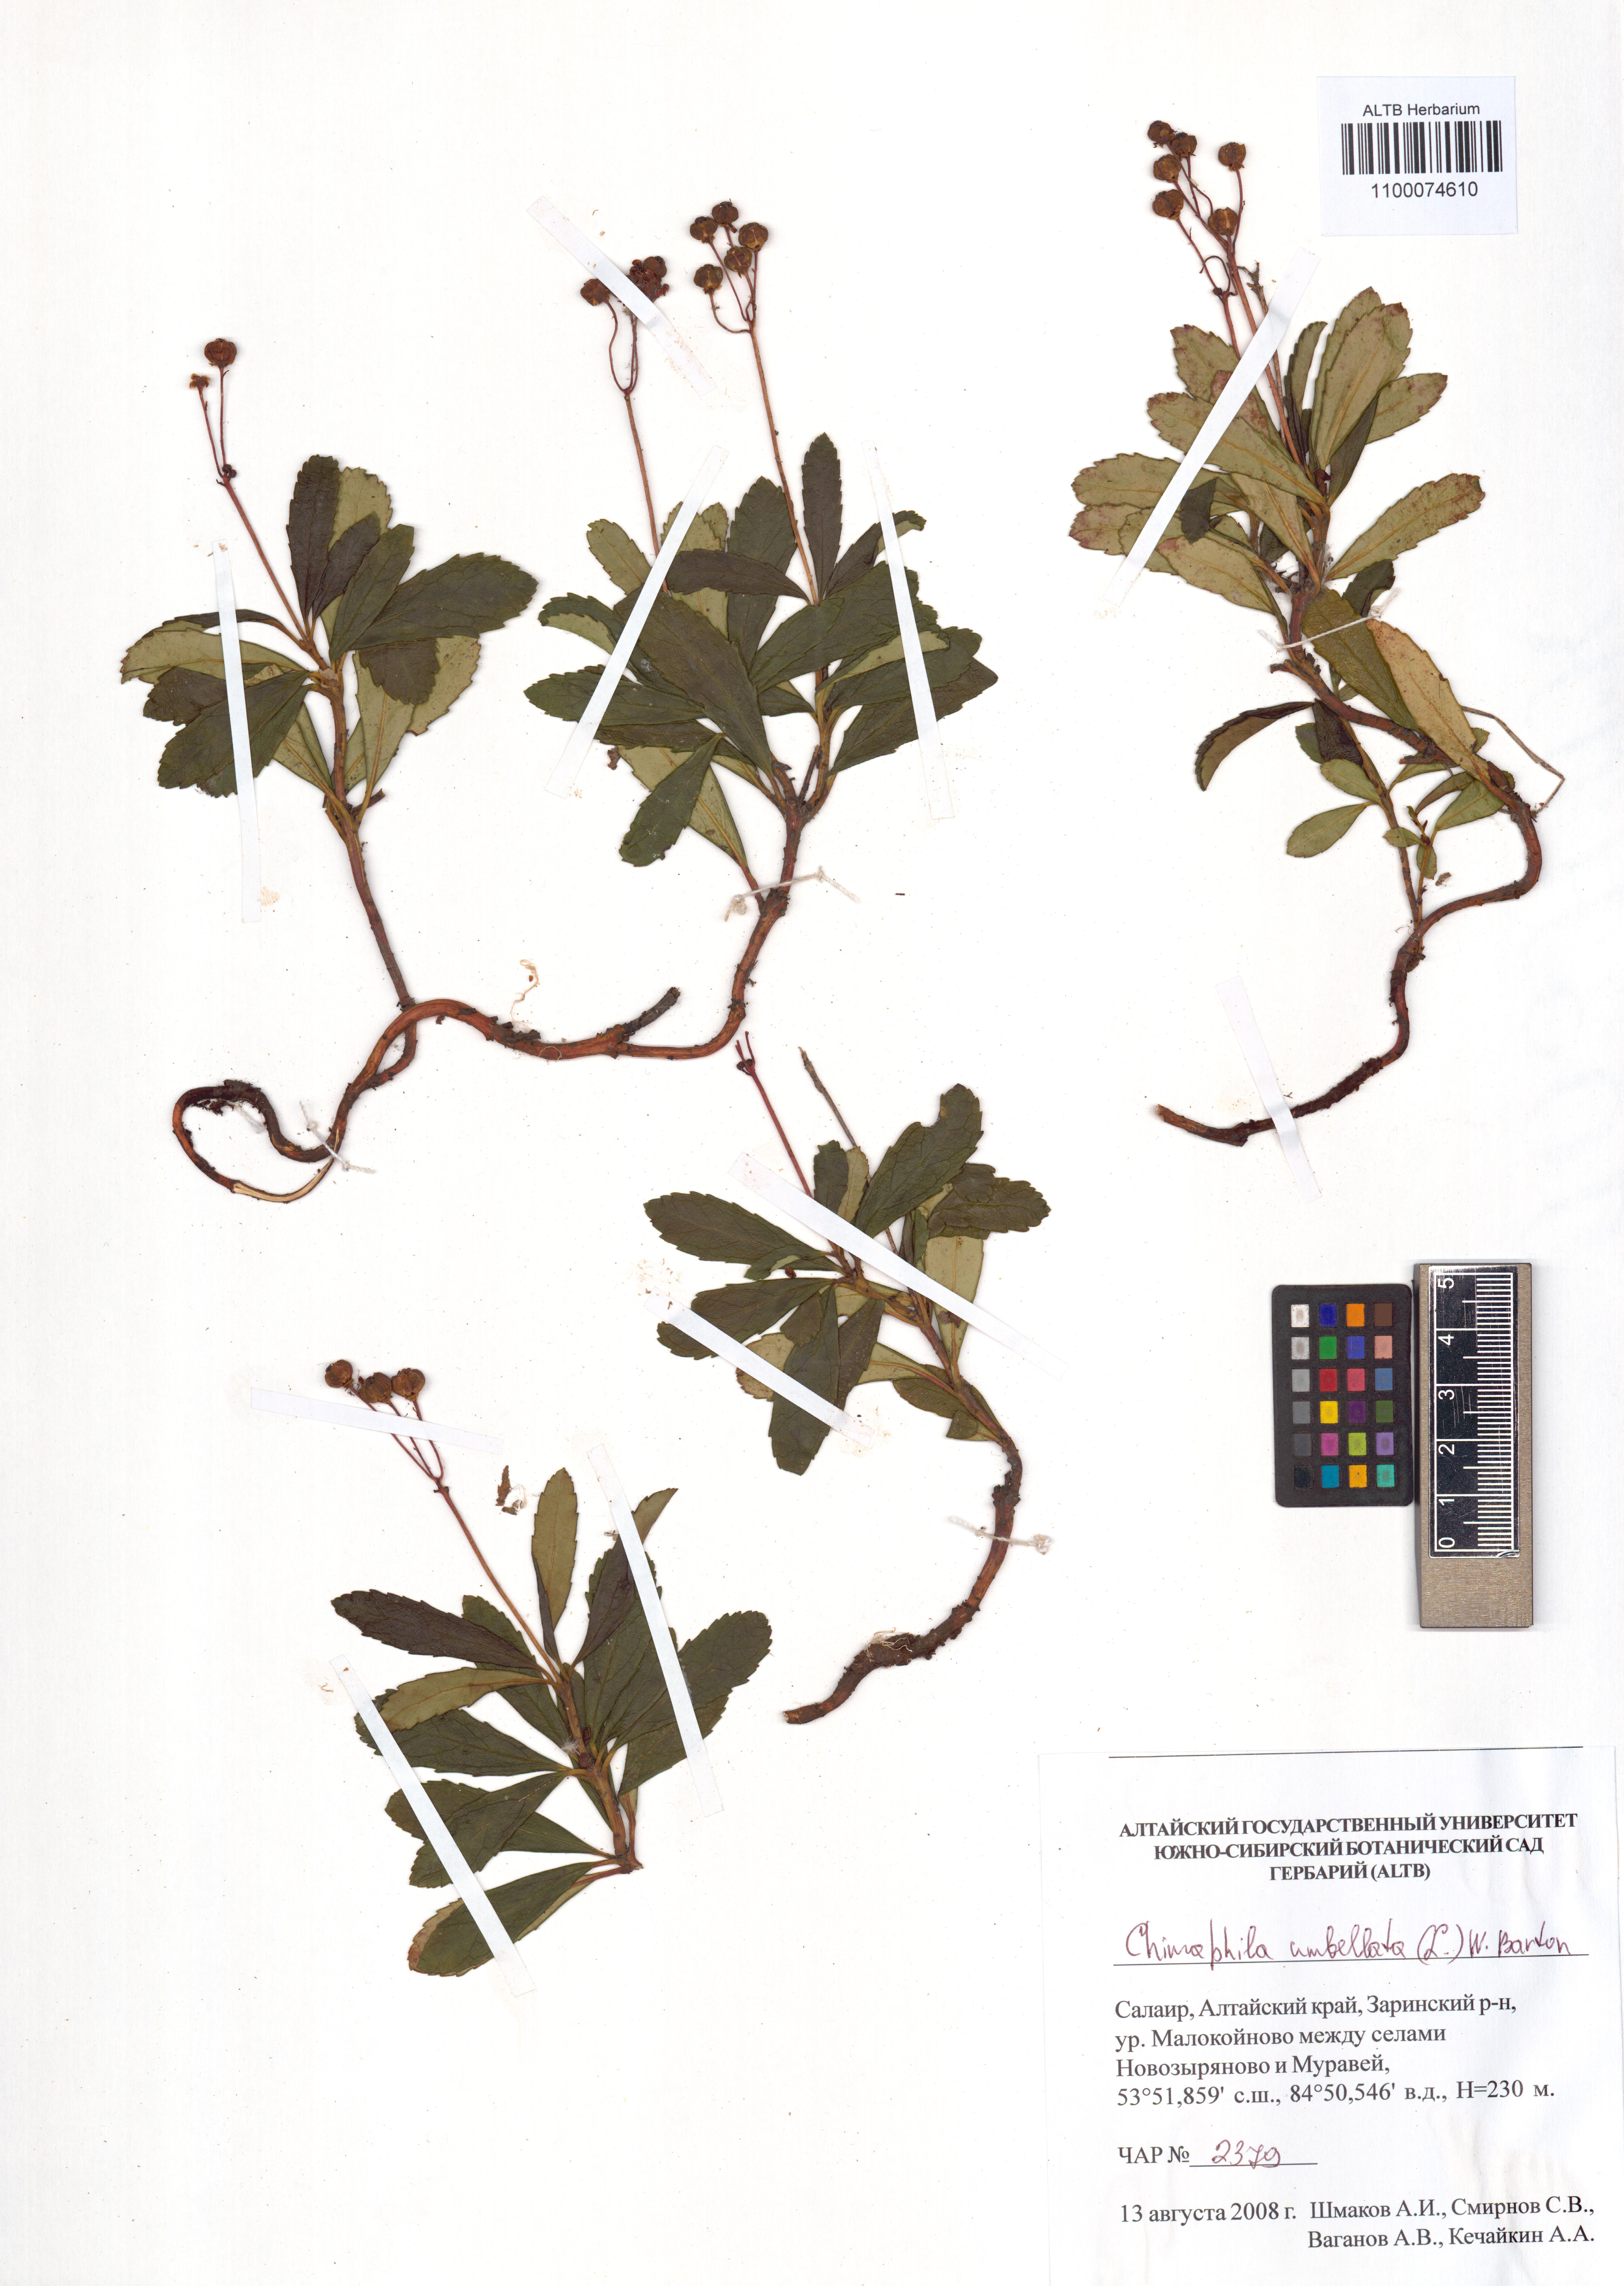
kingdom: Plantae
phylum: Tracheophyta
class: Magnoliopsida
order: Ericales
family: Ericaceae
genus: Chimaphila
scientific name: Chimaphila umbellata
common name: Pipsissewa
